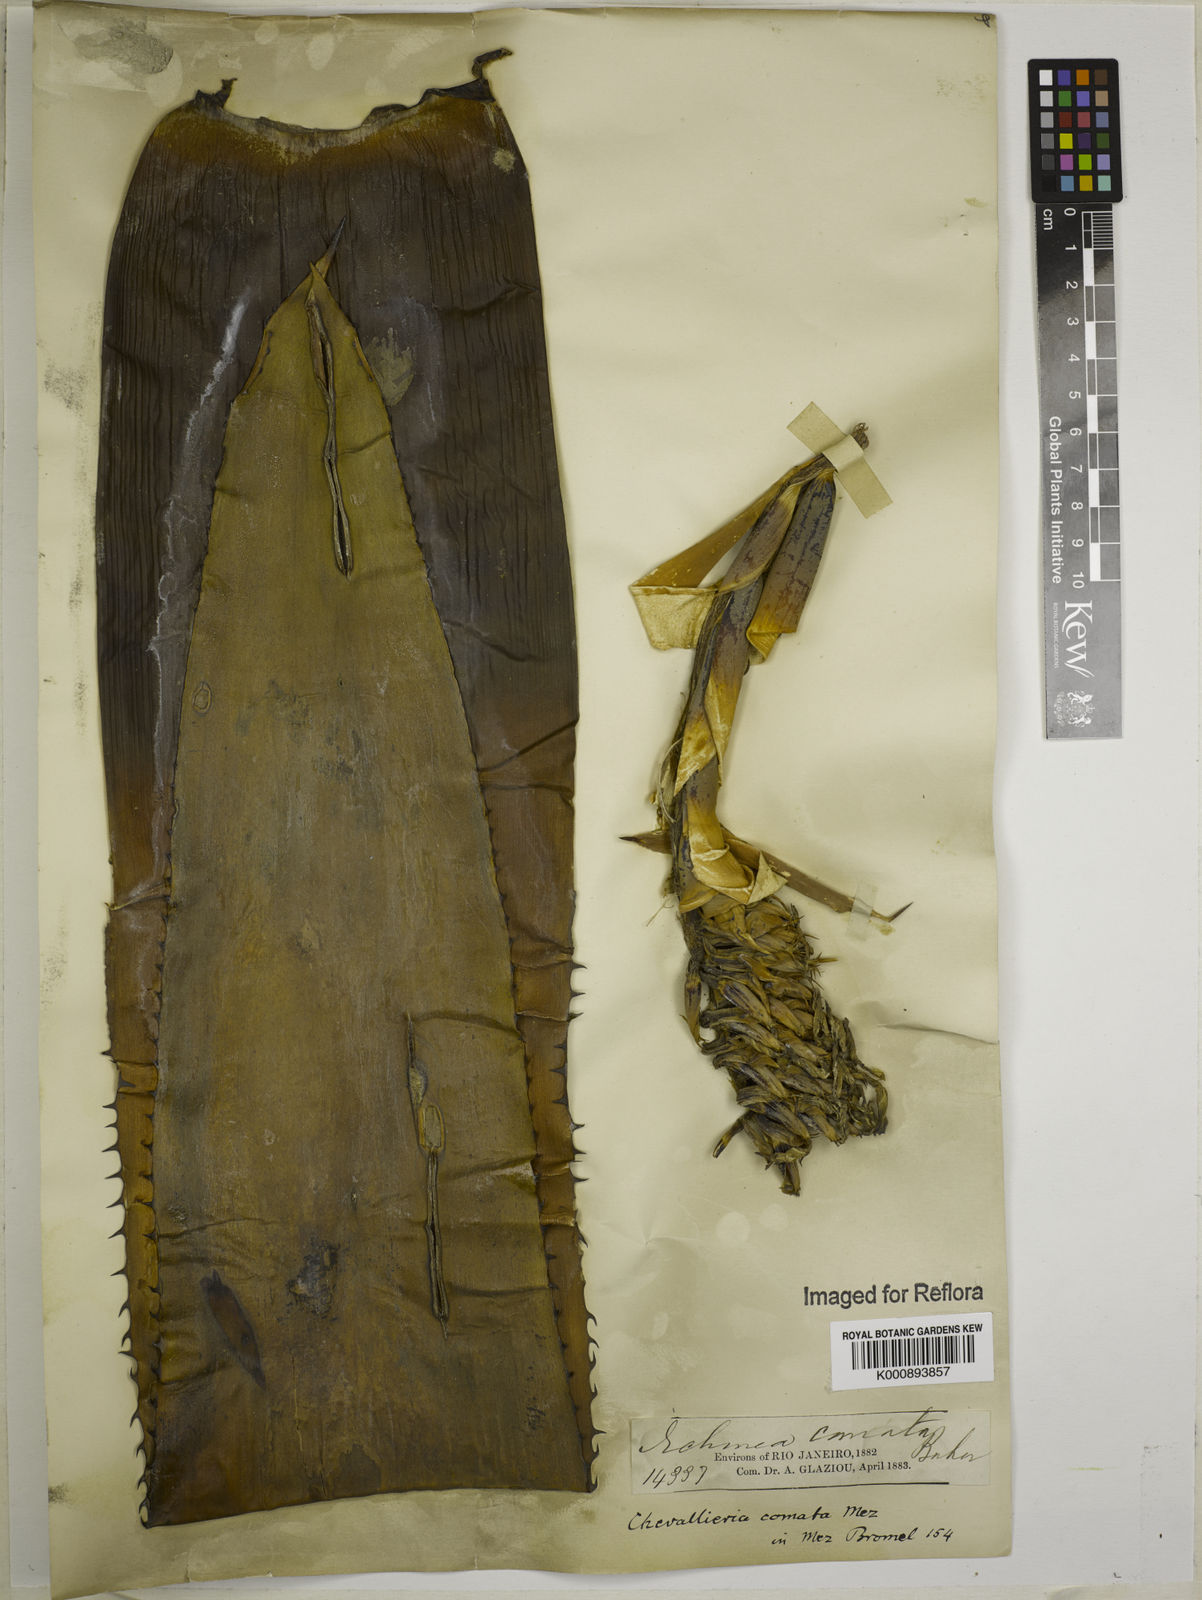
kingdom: Plantae
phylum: Tracheophyta
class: Liliopsida
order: Poales
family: Bromeliaceae
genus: Aechmea
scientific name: Aechmea cariocae
